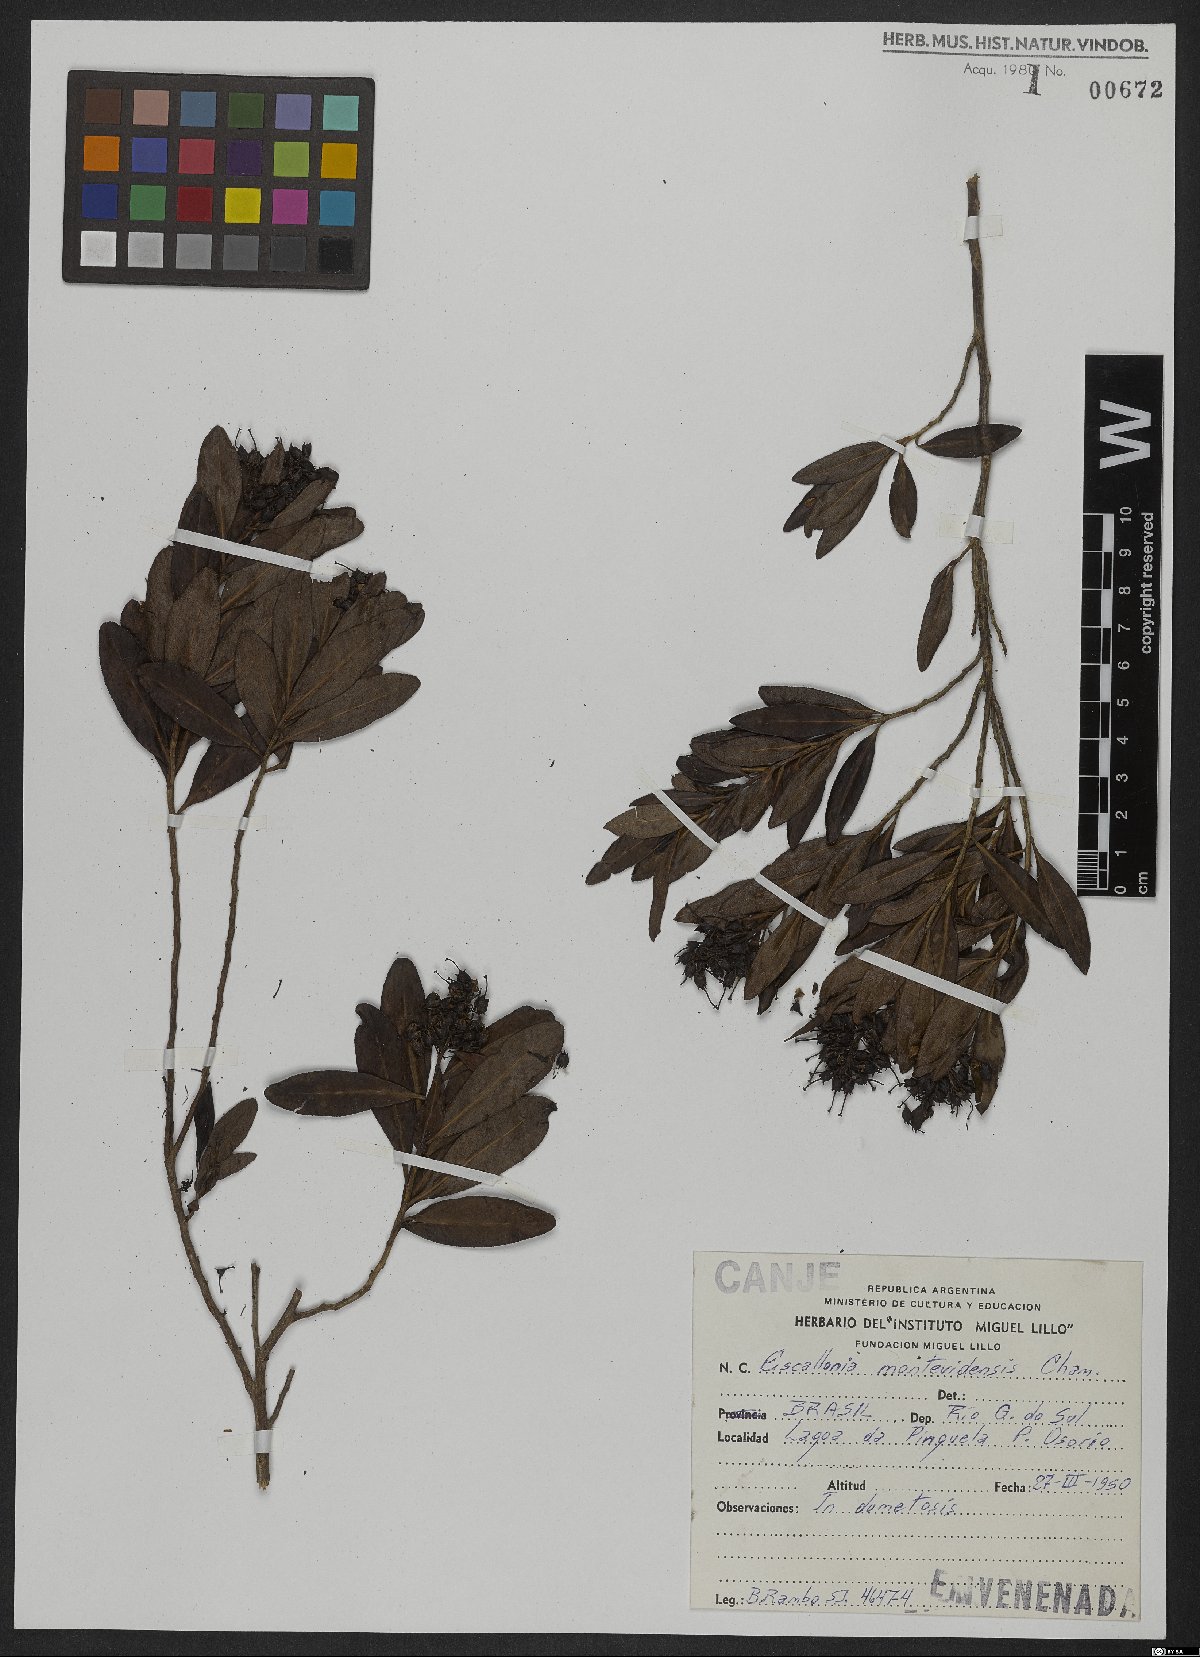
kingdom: Plantae
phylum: Tracheophyta
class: Magnoliopsida
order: Escalloniales
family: Escalloniaceae
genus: Escallonia
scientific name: Escallonia bifida
